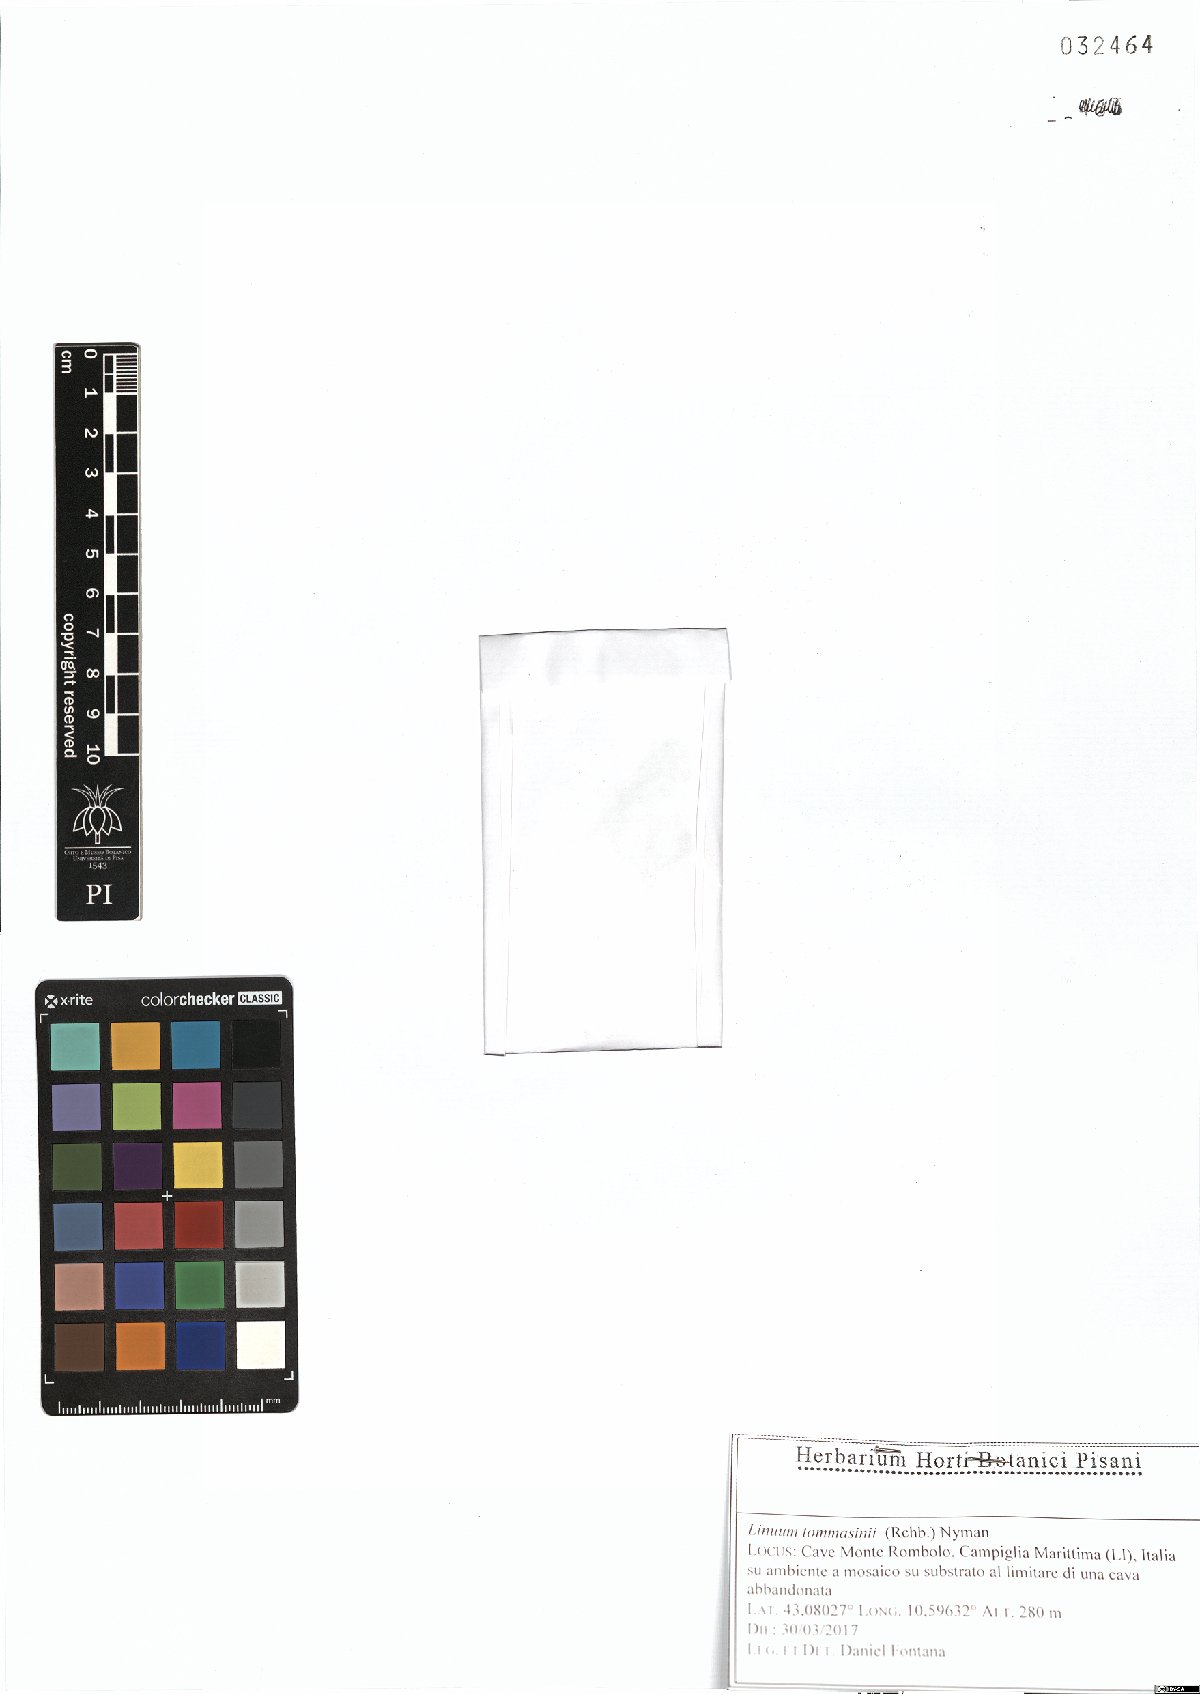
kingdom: Plantae
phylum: Tracheophyta
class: Magnoliopsida
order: Malpighiales
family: Linaceae
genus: Linum
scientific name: Linum austriacum
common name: Austrian flax
